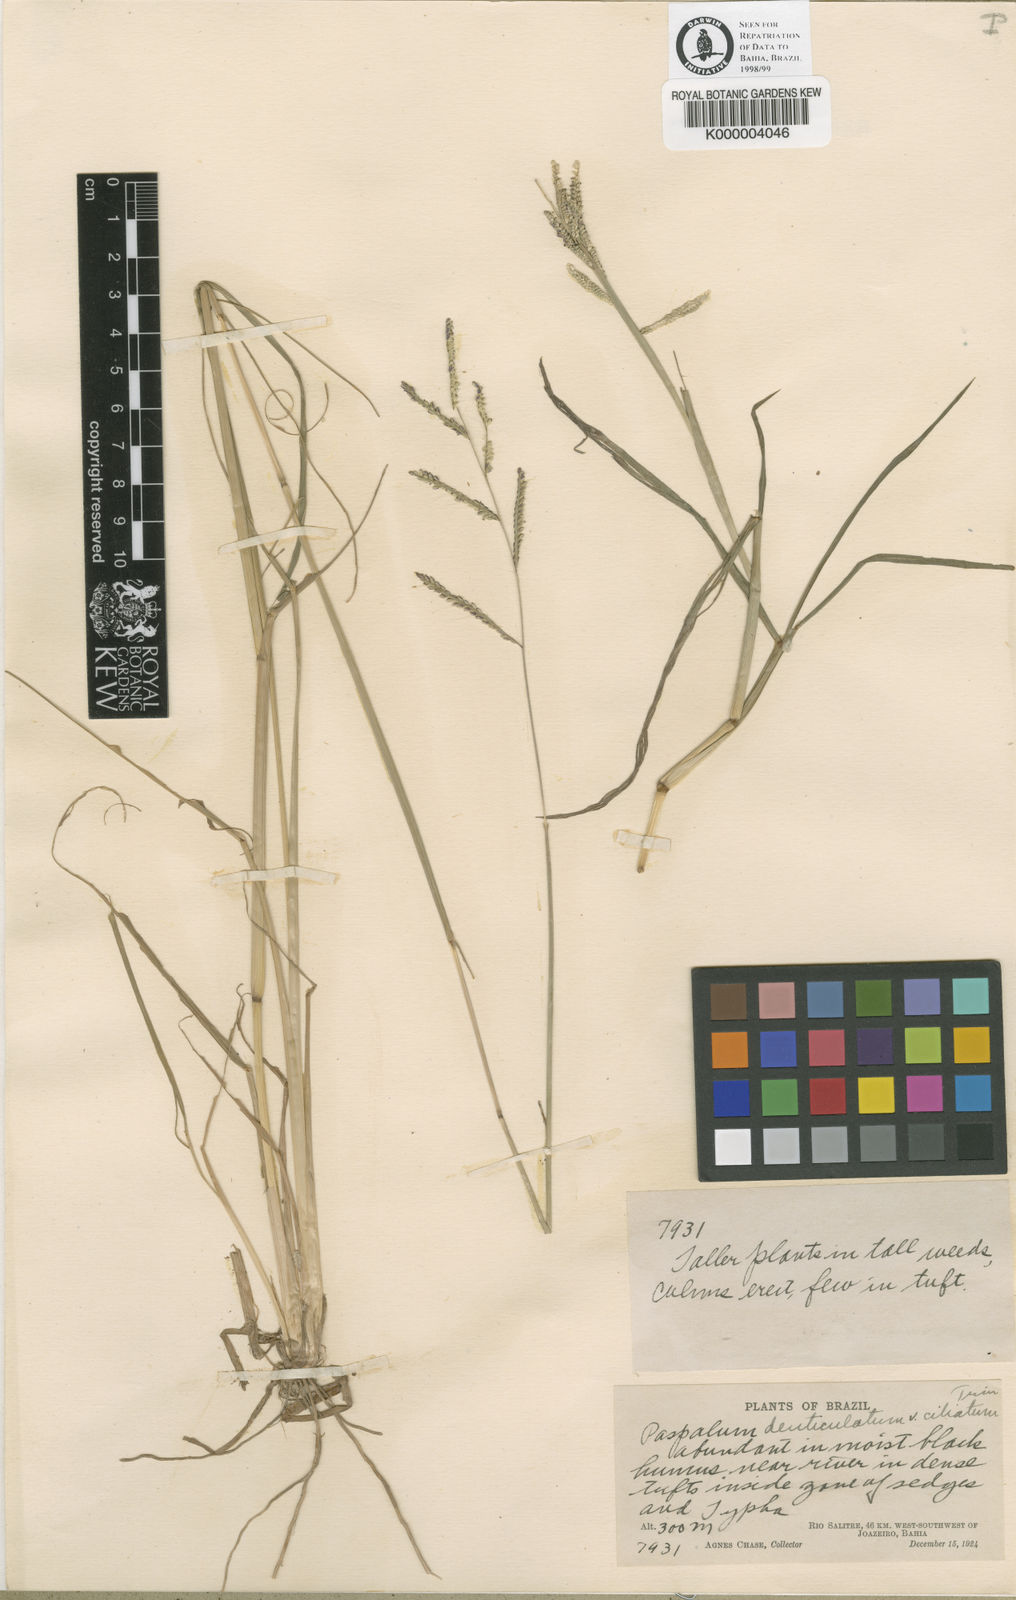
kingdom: Plantae
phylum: Tracheophyta
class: Liliopsida
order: Poales
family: Poaceae
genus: Paspalum
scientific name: Paspalum trichophyllum
